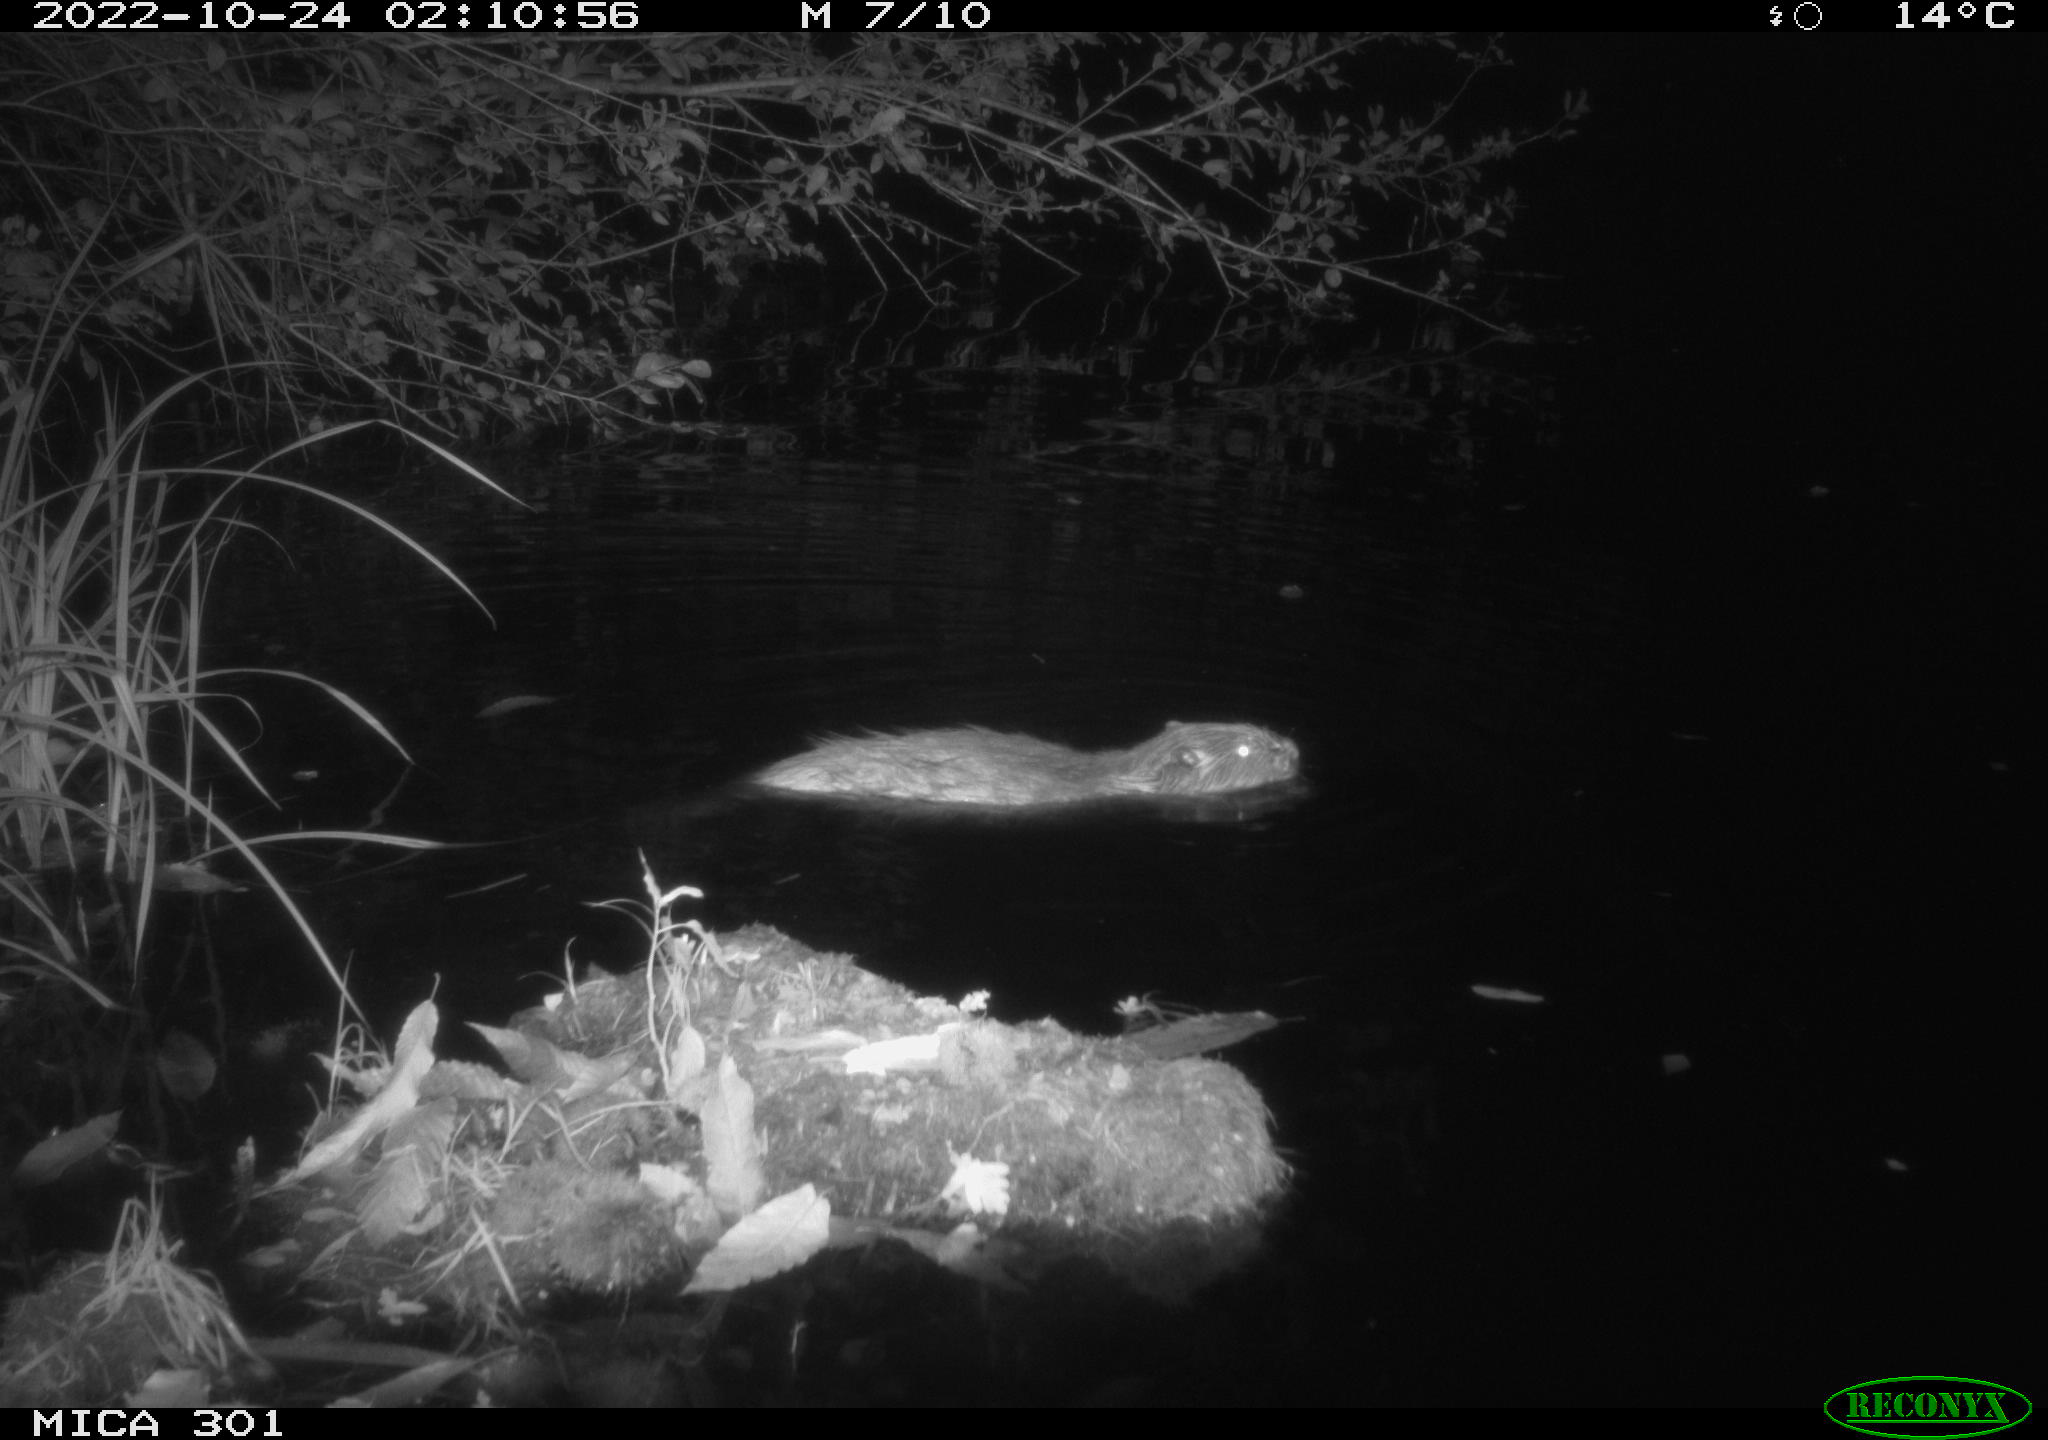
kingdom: Animalia
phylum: Chordata
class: Mammalia
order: Rodentia
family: Castoridae
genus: Castor
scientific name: Castor fiber
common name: Eurasian beaver
